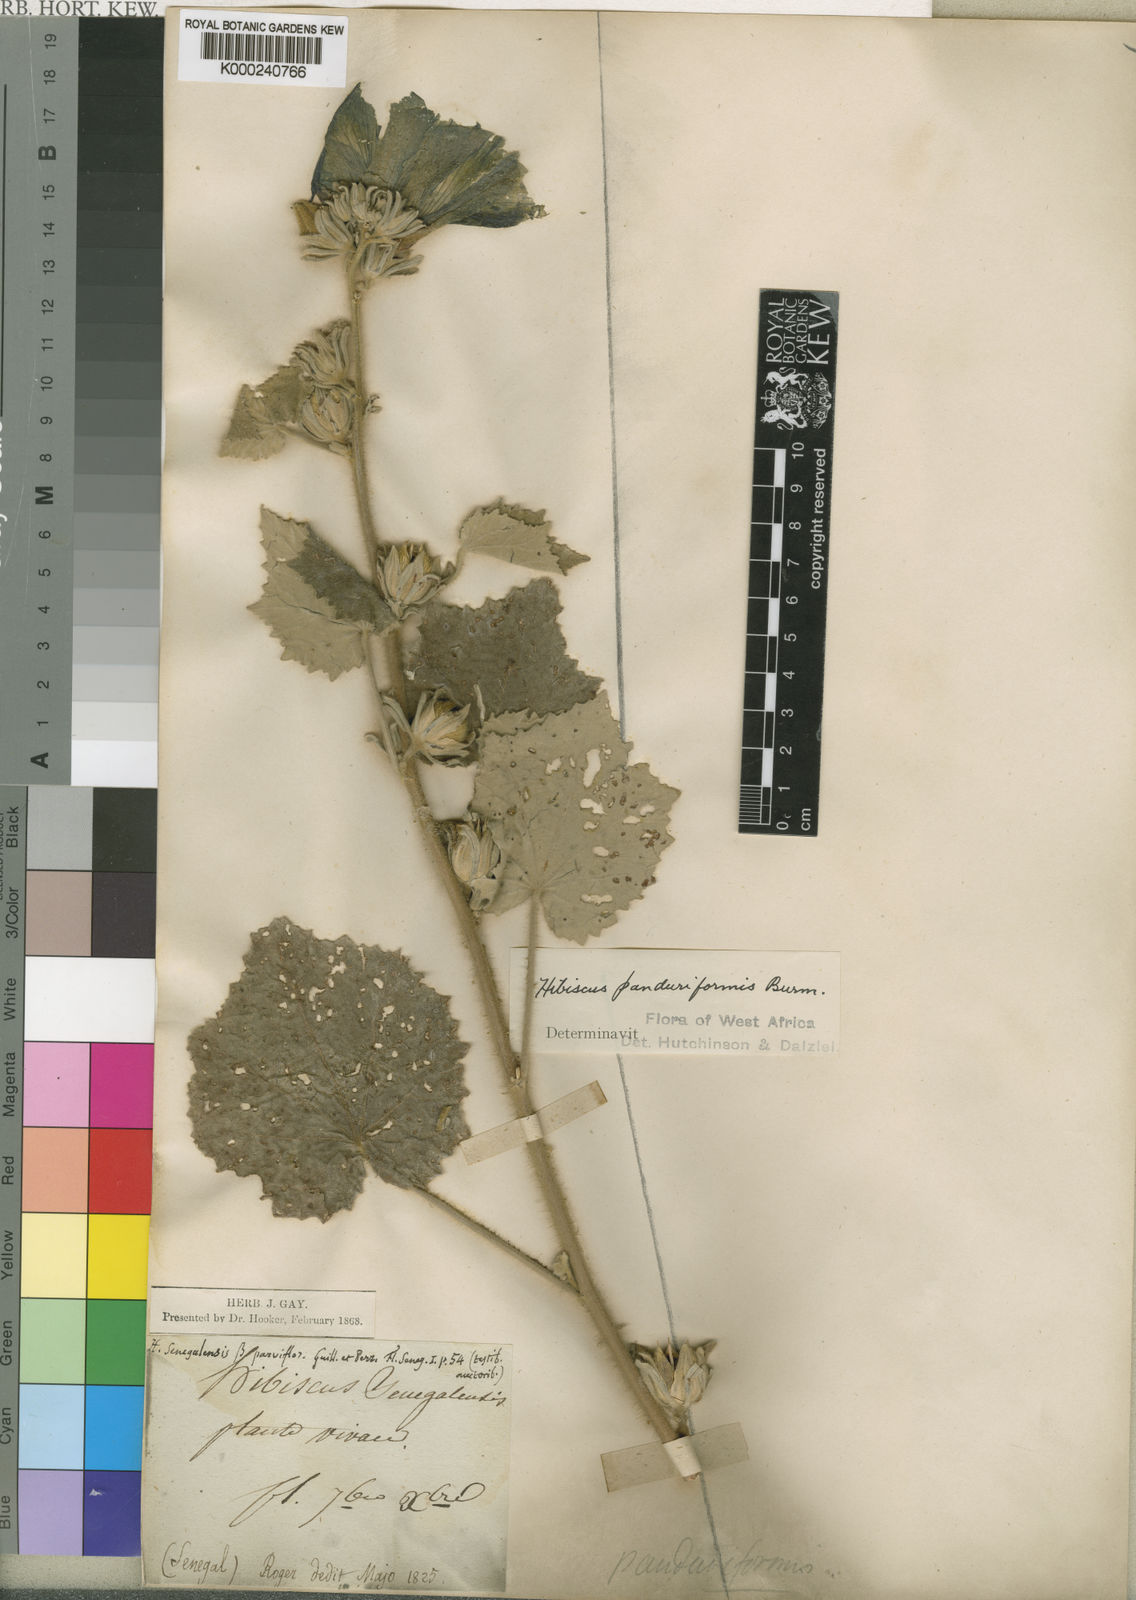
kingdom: Plantae
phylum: Tracheophyta
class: Magnoliopsida
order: Malvales
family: Malvaceae
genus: Hibiscus
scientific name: Hibiscus panduriformis
